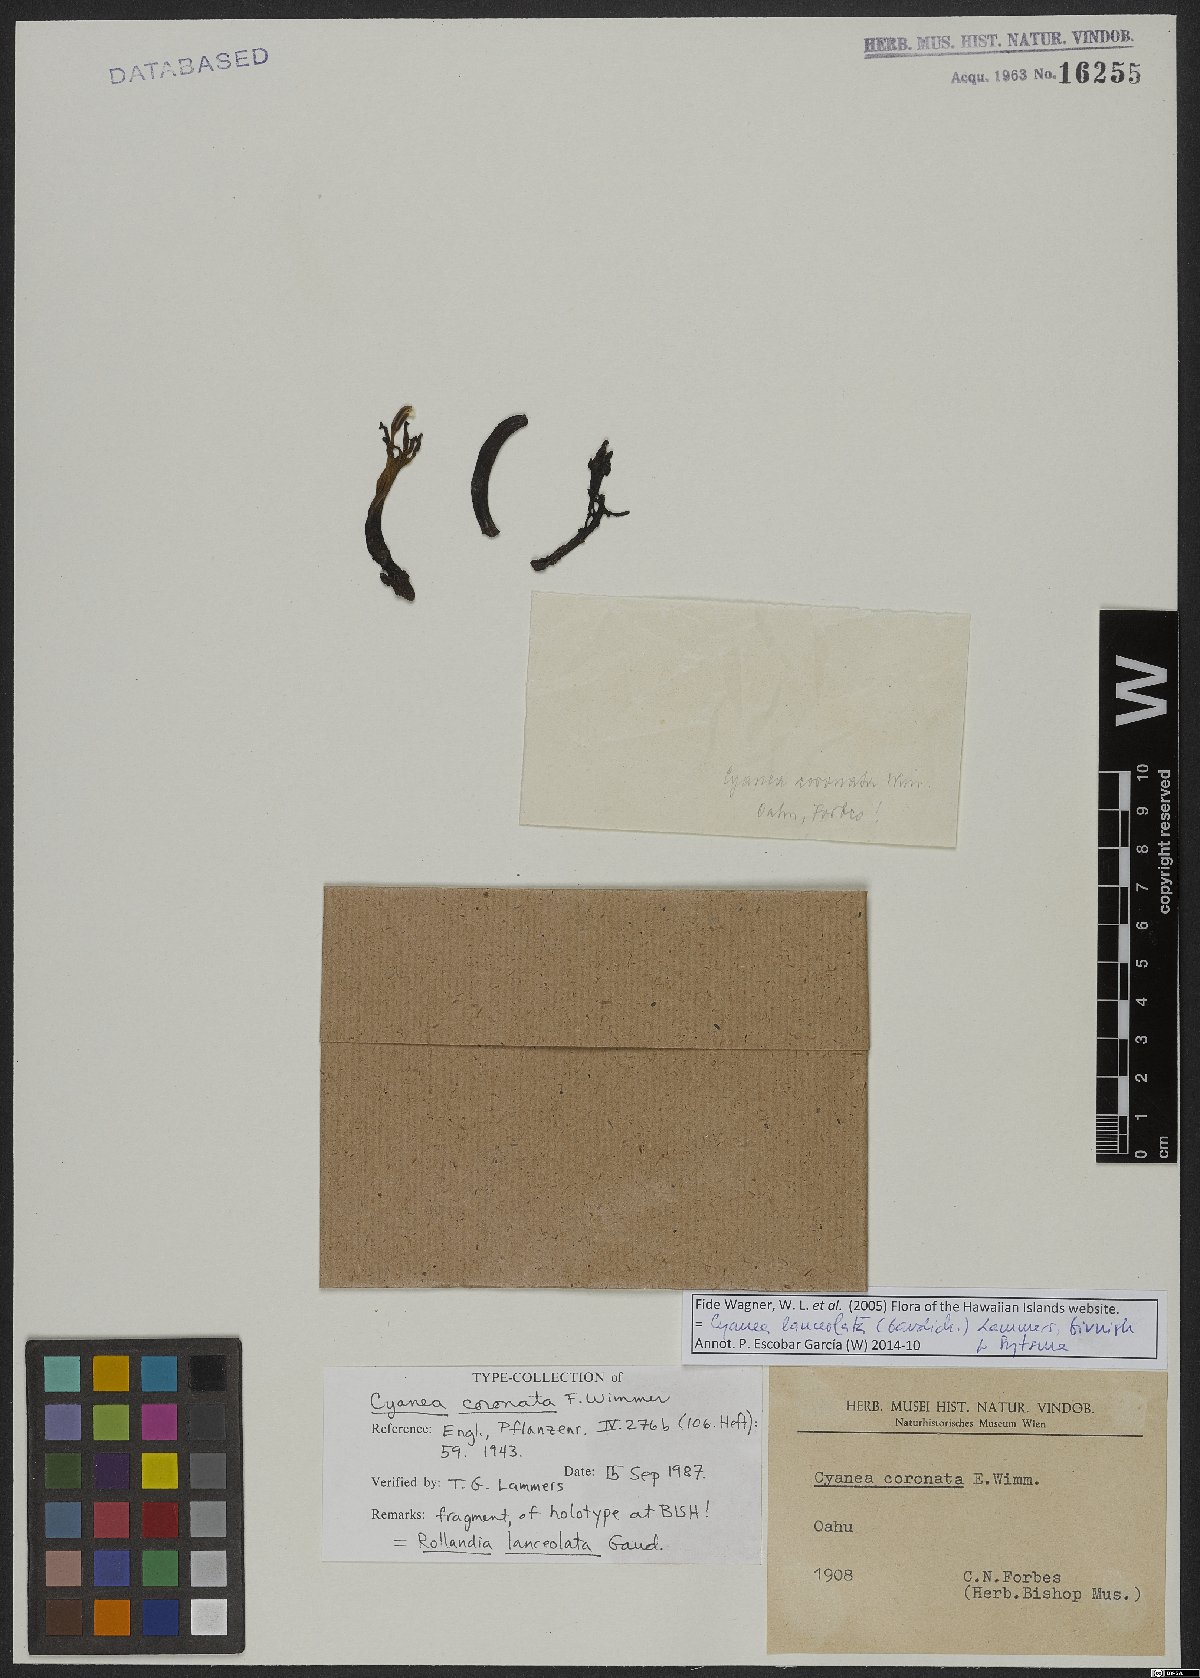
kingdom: Plantae
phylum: Tracheophyta
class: Magnoliopsida
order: Asterales
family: Campanulaceae
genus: Cyanea
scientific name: Cyanea lanceolata
